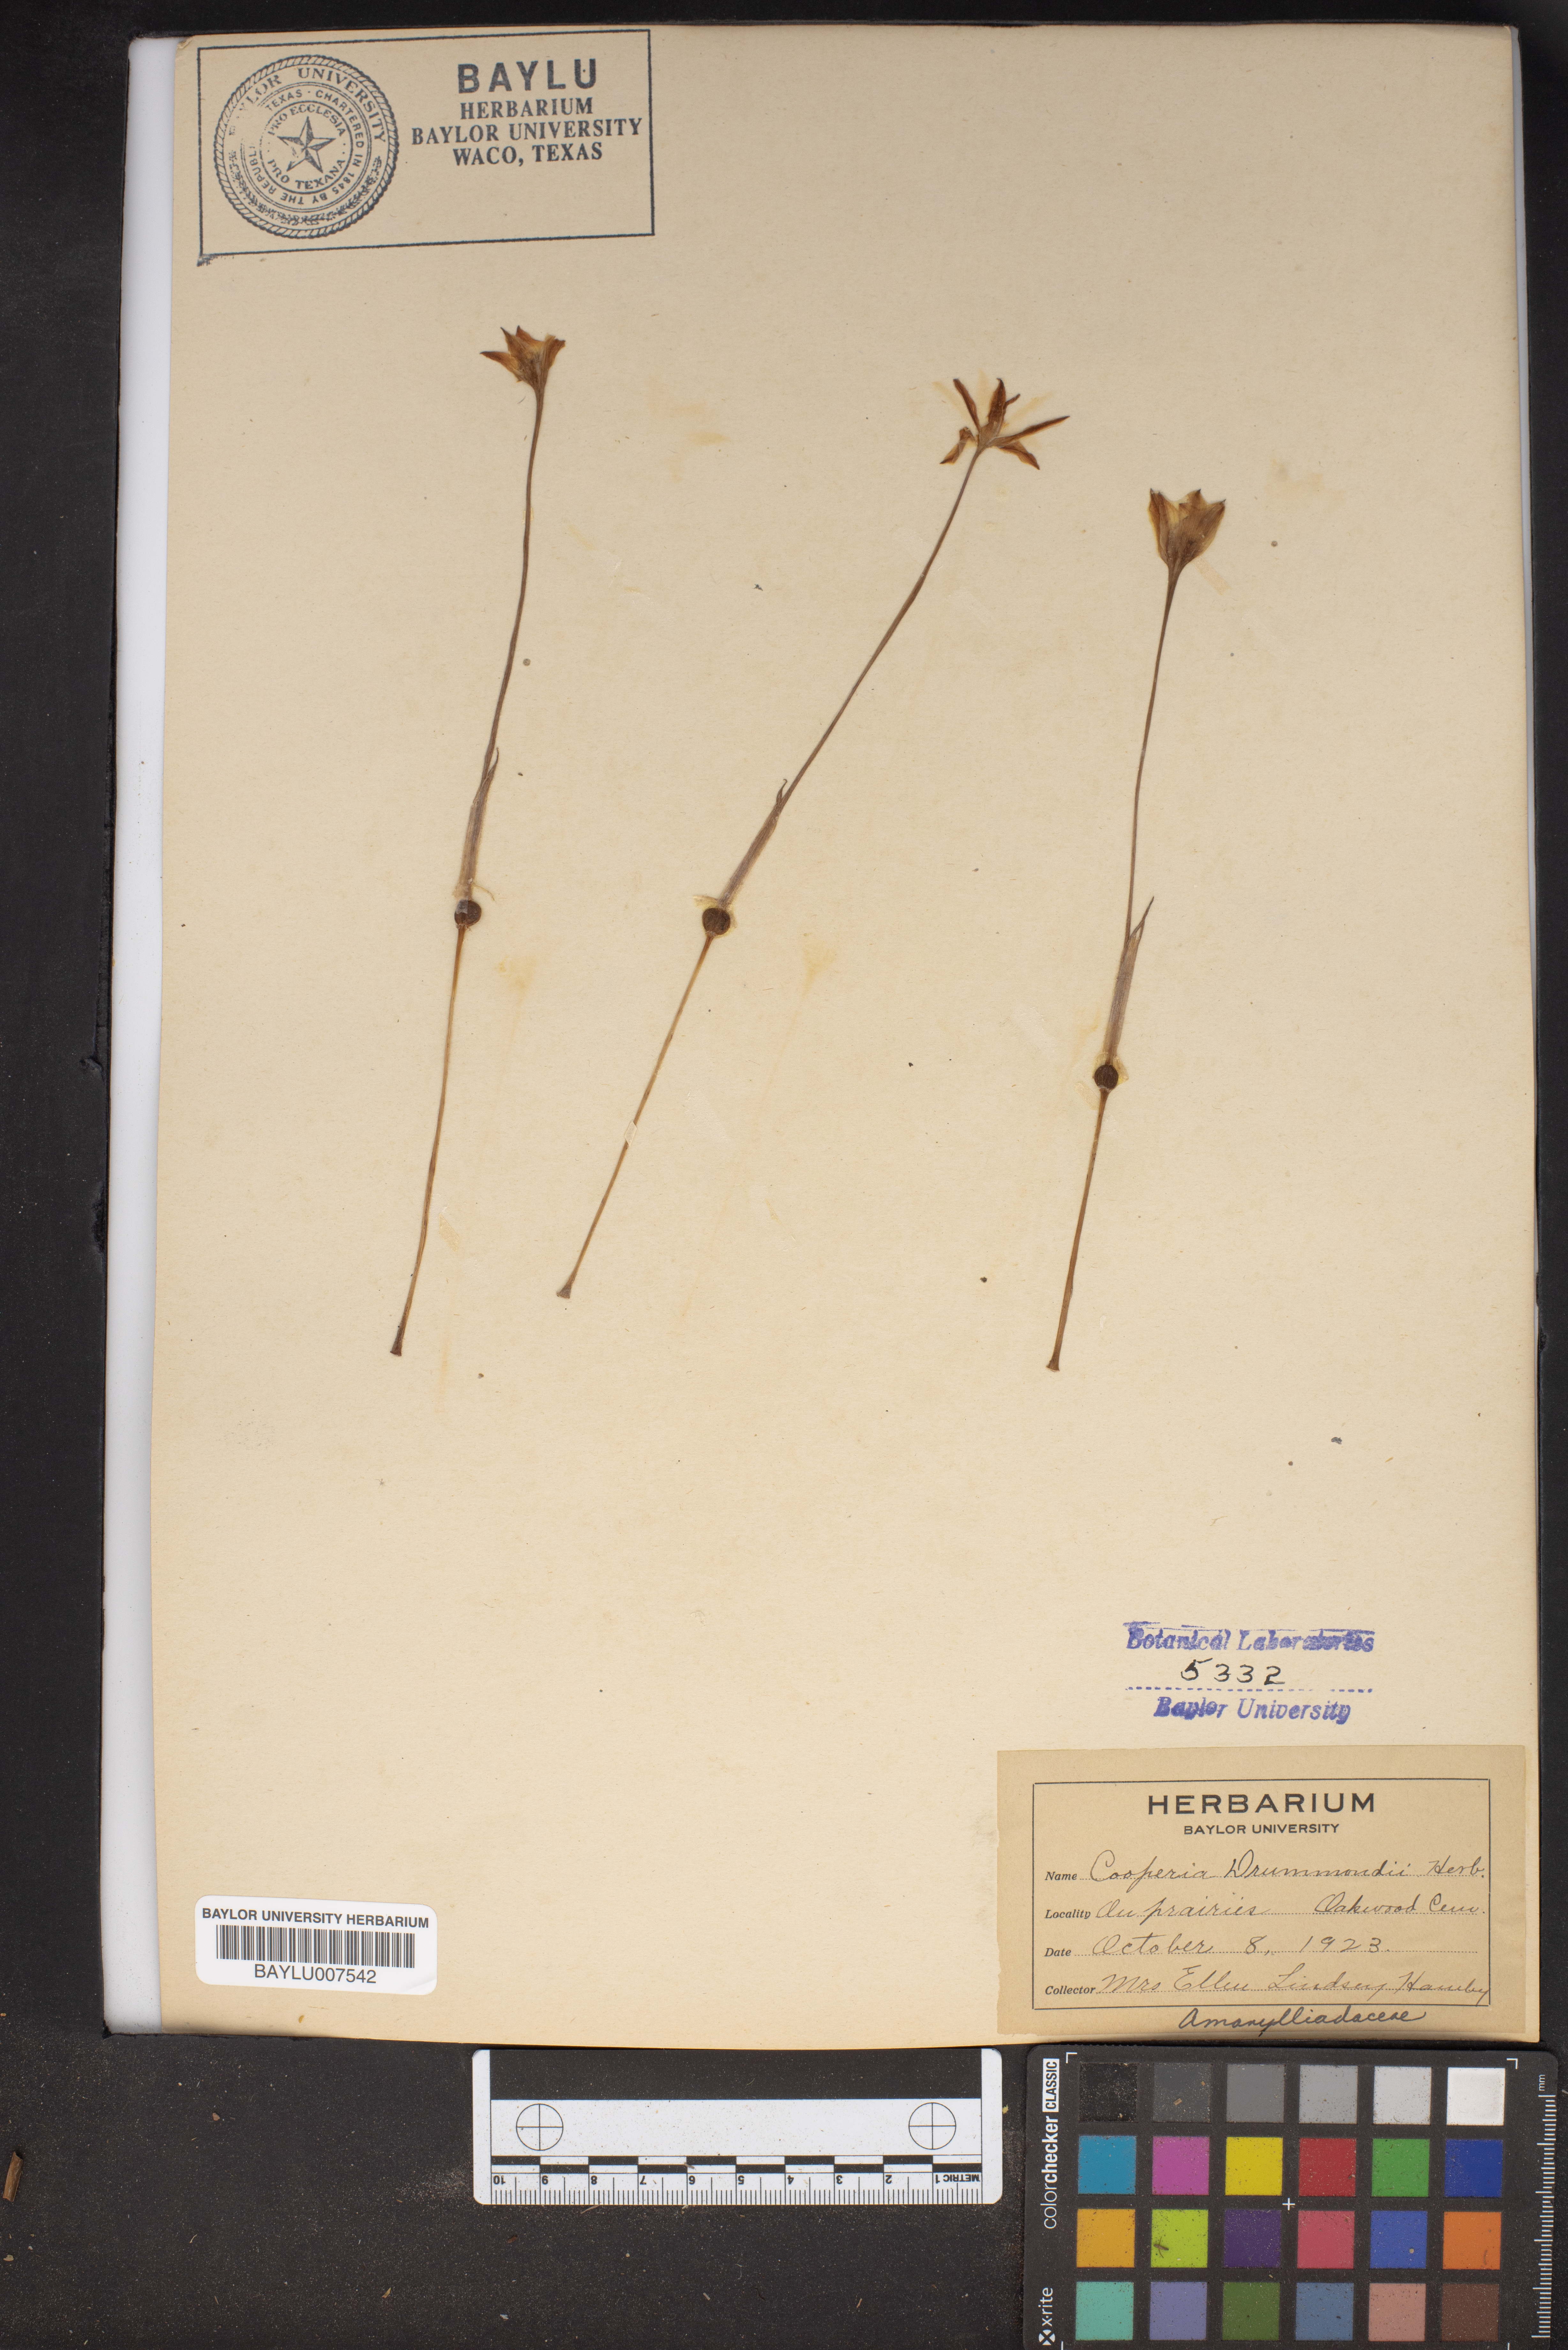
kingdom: Plantae
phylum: Tracheophyta
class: Liliopsida
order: Asparagales
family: Amaryllidaceae
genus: Zephyranthes
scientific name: Zephyranthes chlorosolen
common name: Evening rain-lily
